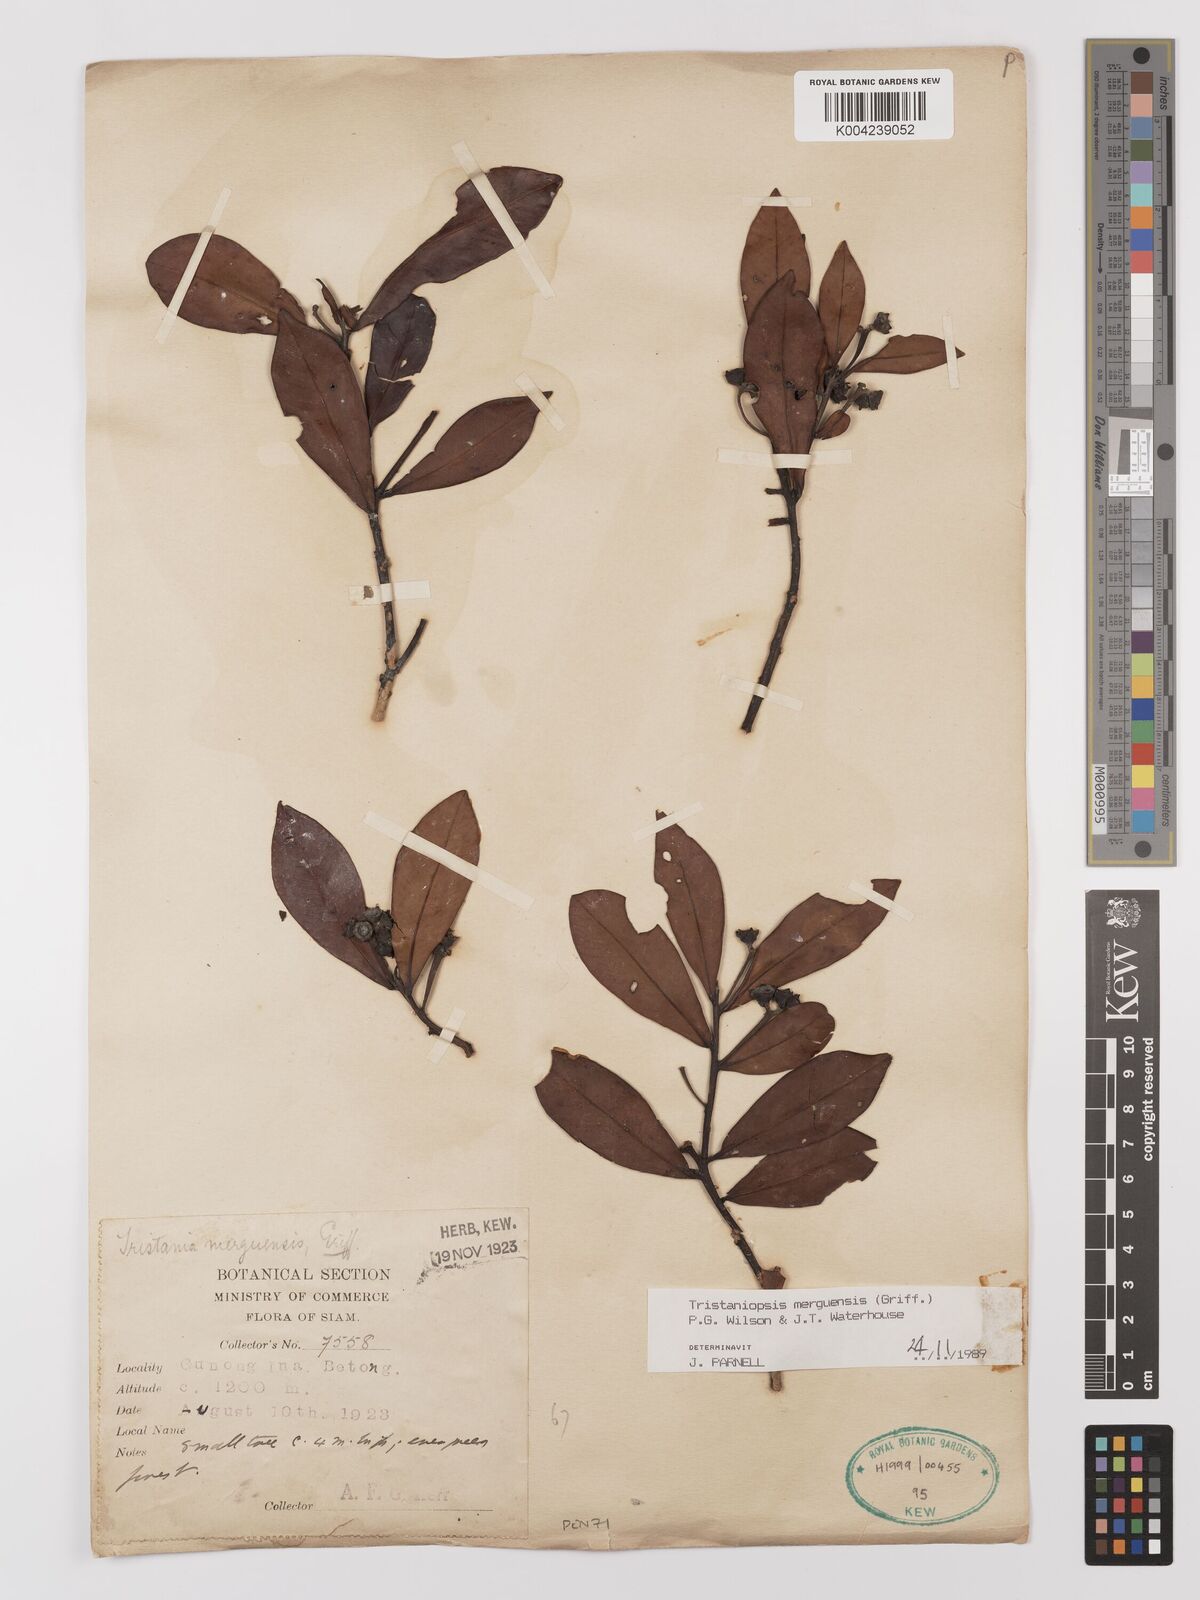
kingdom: Plantae
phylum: Tracheophyta
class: Magnoliopsida
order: Myrtales
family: Myrtaceae
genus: Tristaniopsis
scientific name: Tristaniopsis merguensis
